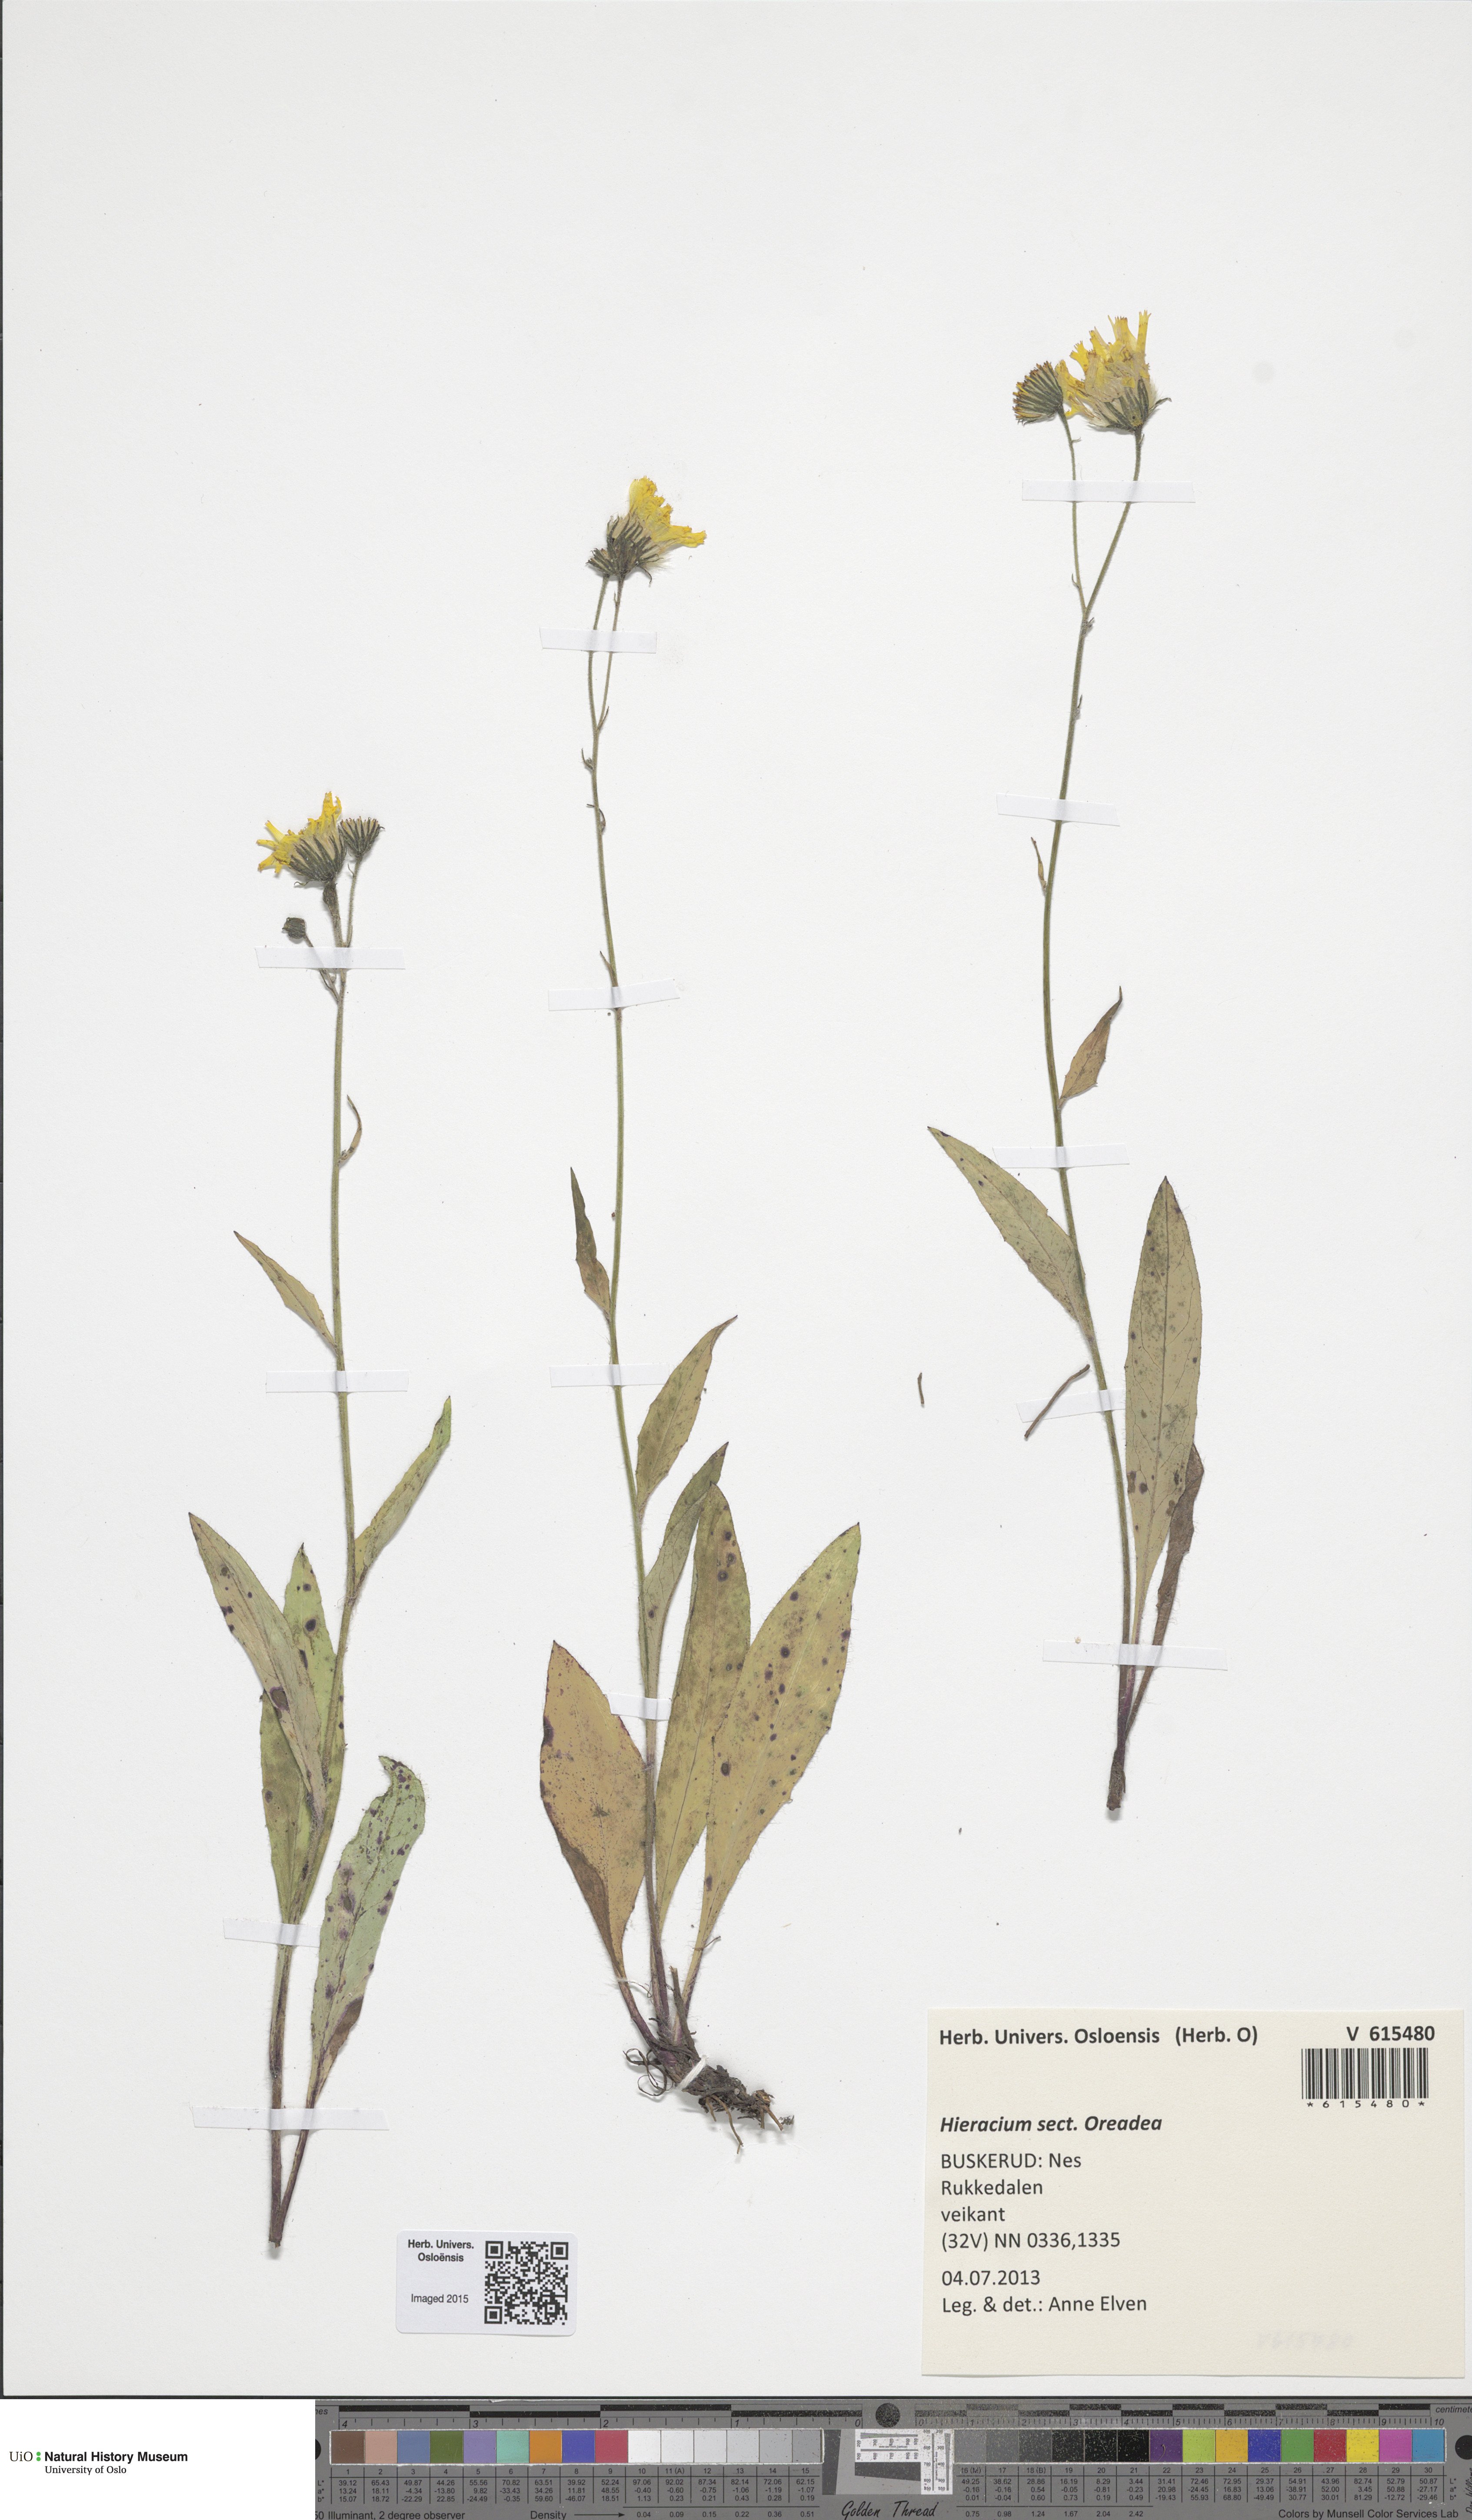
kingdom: Plantae
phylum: Tracheophyta
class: Magnoliopsida
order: Asterales
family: Asteraceae
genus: Hieracium
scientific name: Hieracium
